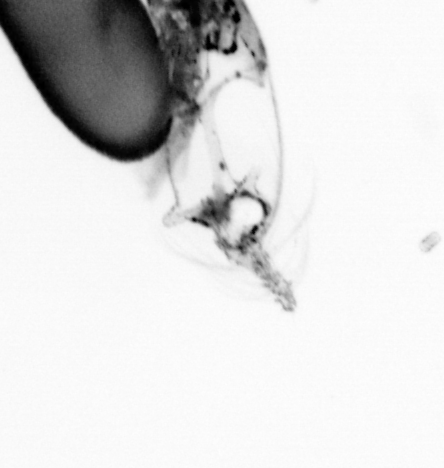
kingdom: Animalia
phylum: Arthropoda
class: Copepoda
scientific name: Copepoda
